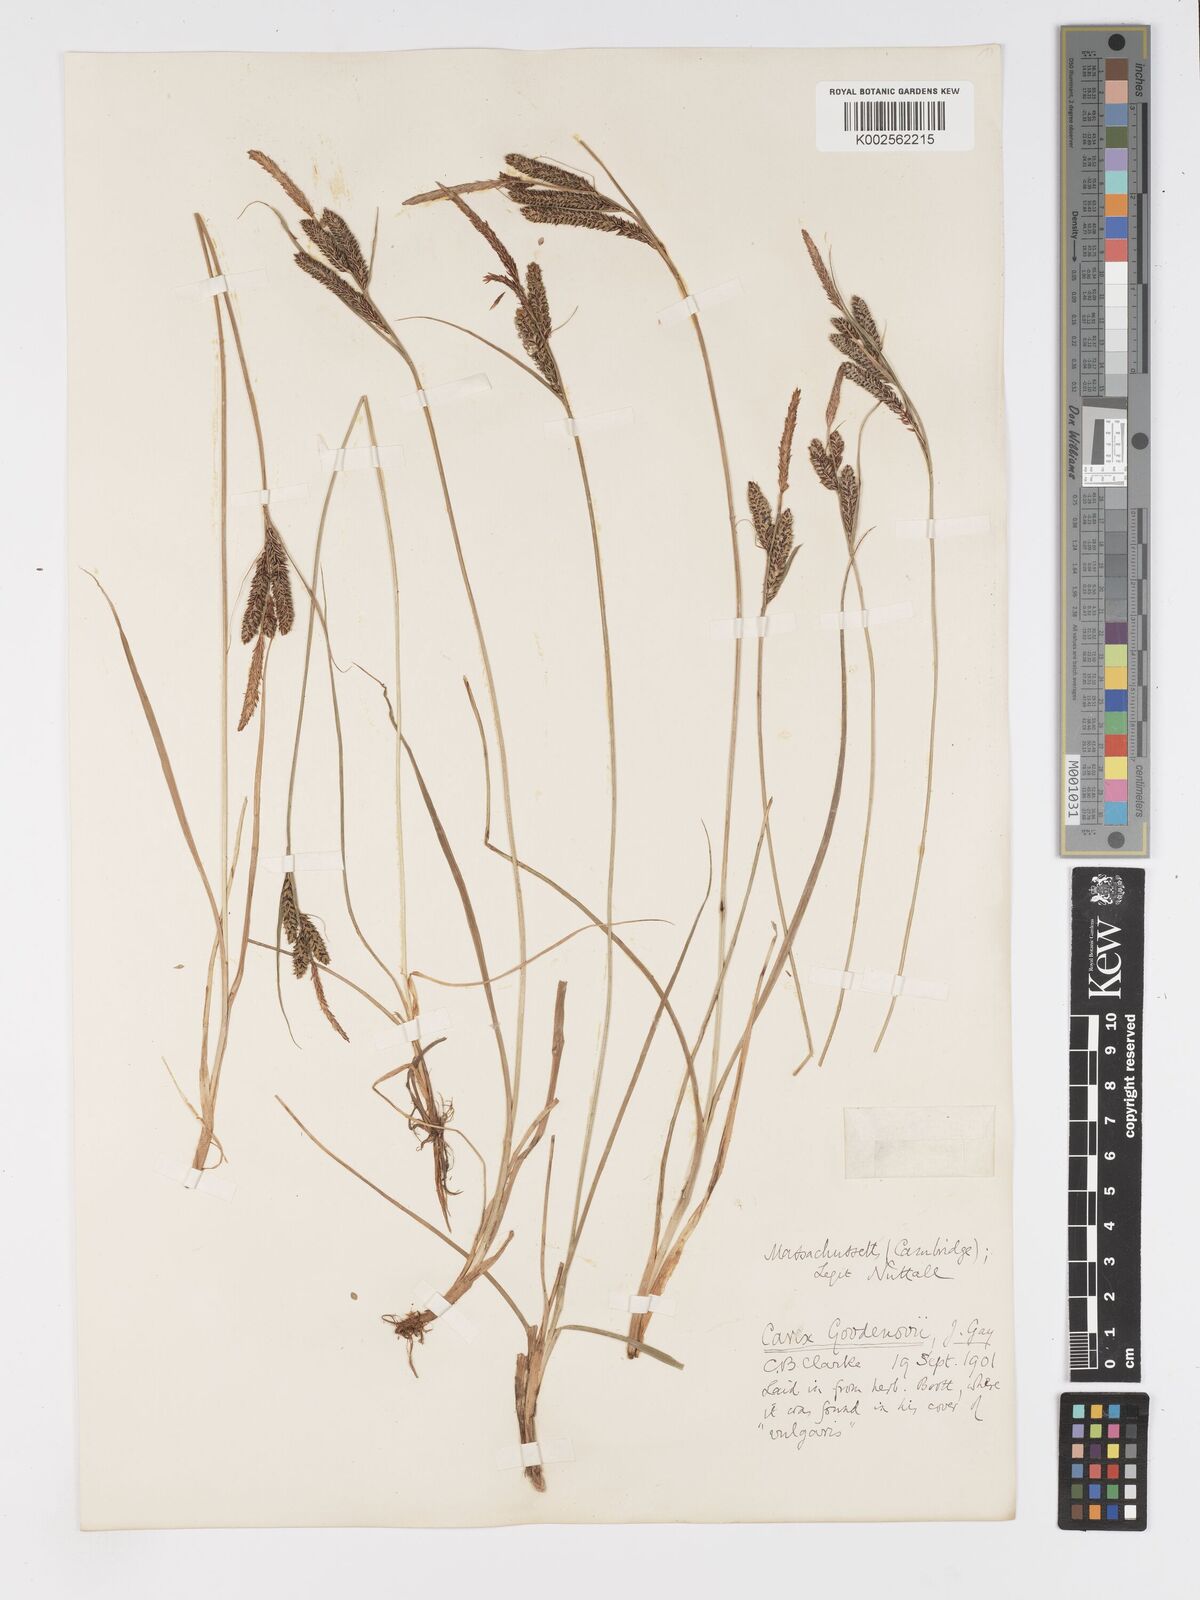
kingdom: Plantae
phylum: Tracheophyta
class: Liliopsida
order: Poales
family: Cyperaceae
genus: Carex
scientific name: Carex nigra
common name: Common sedge
